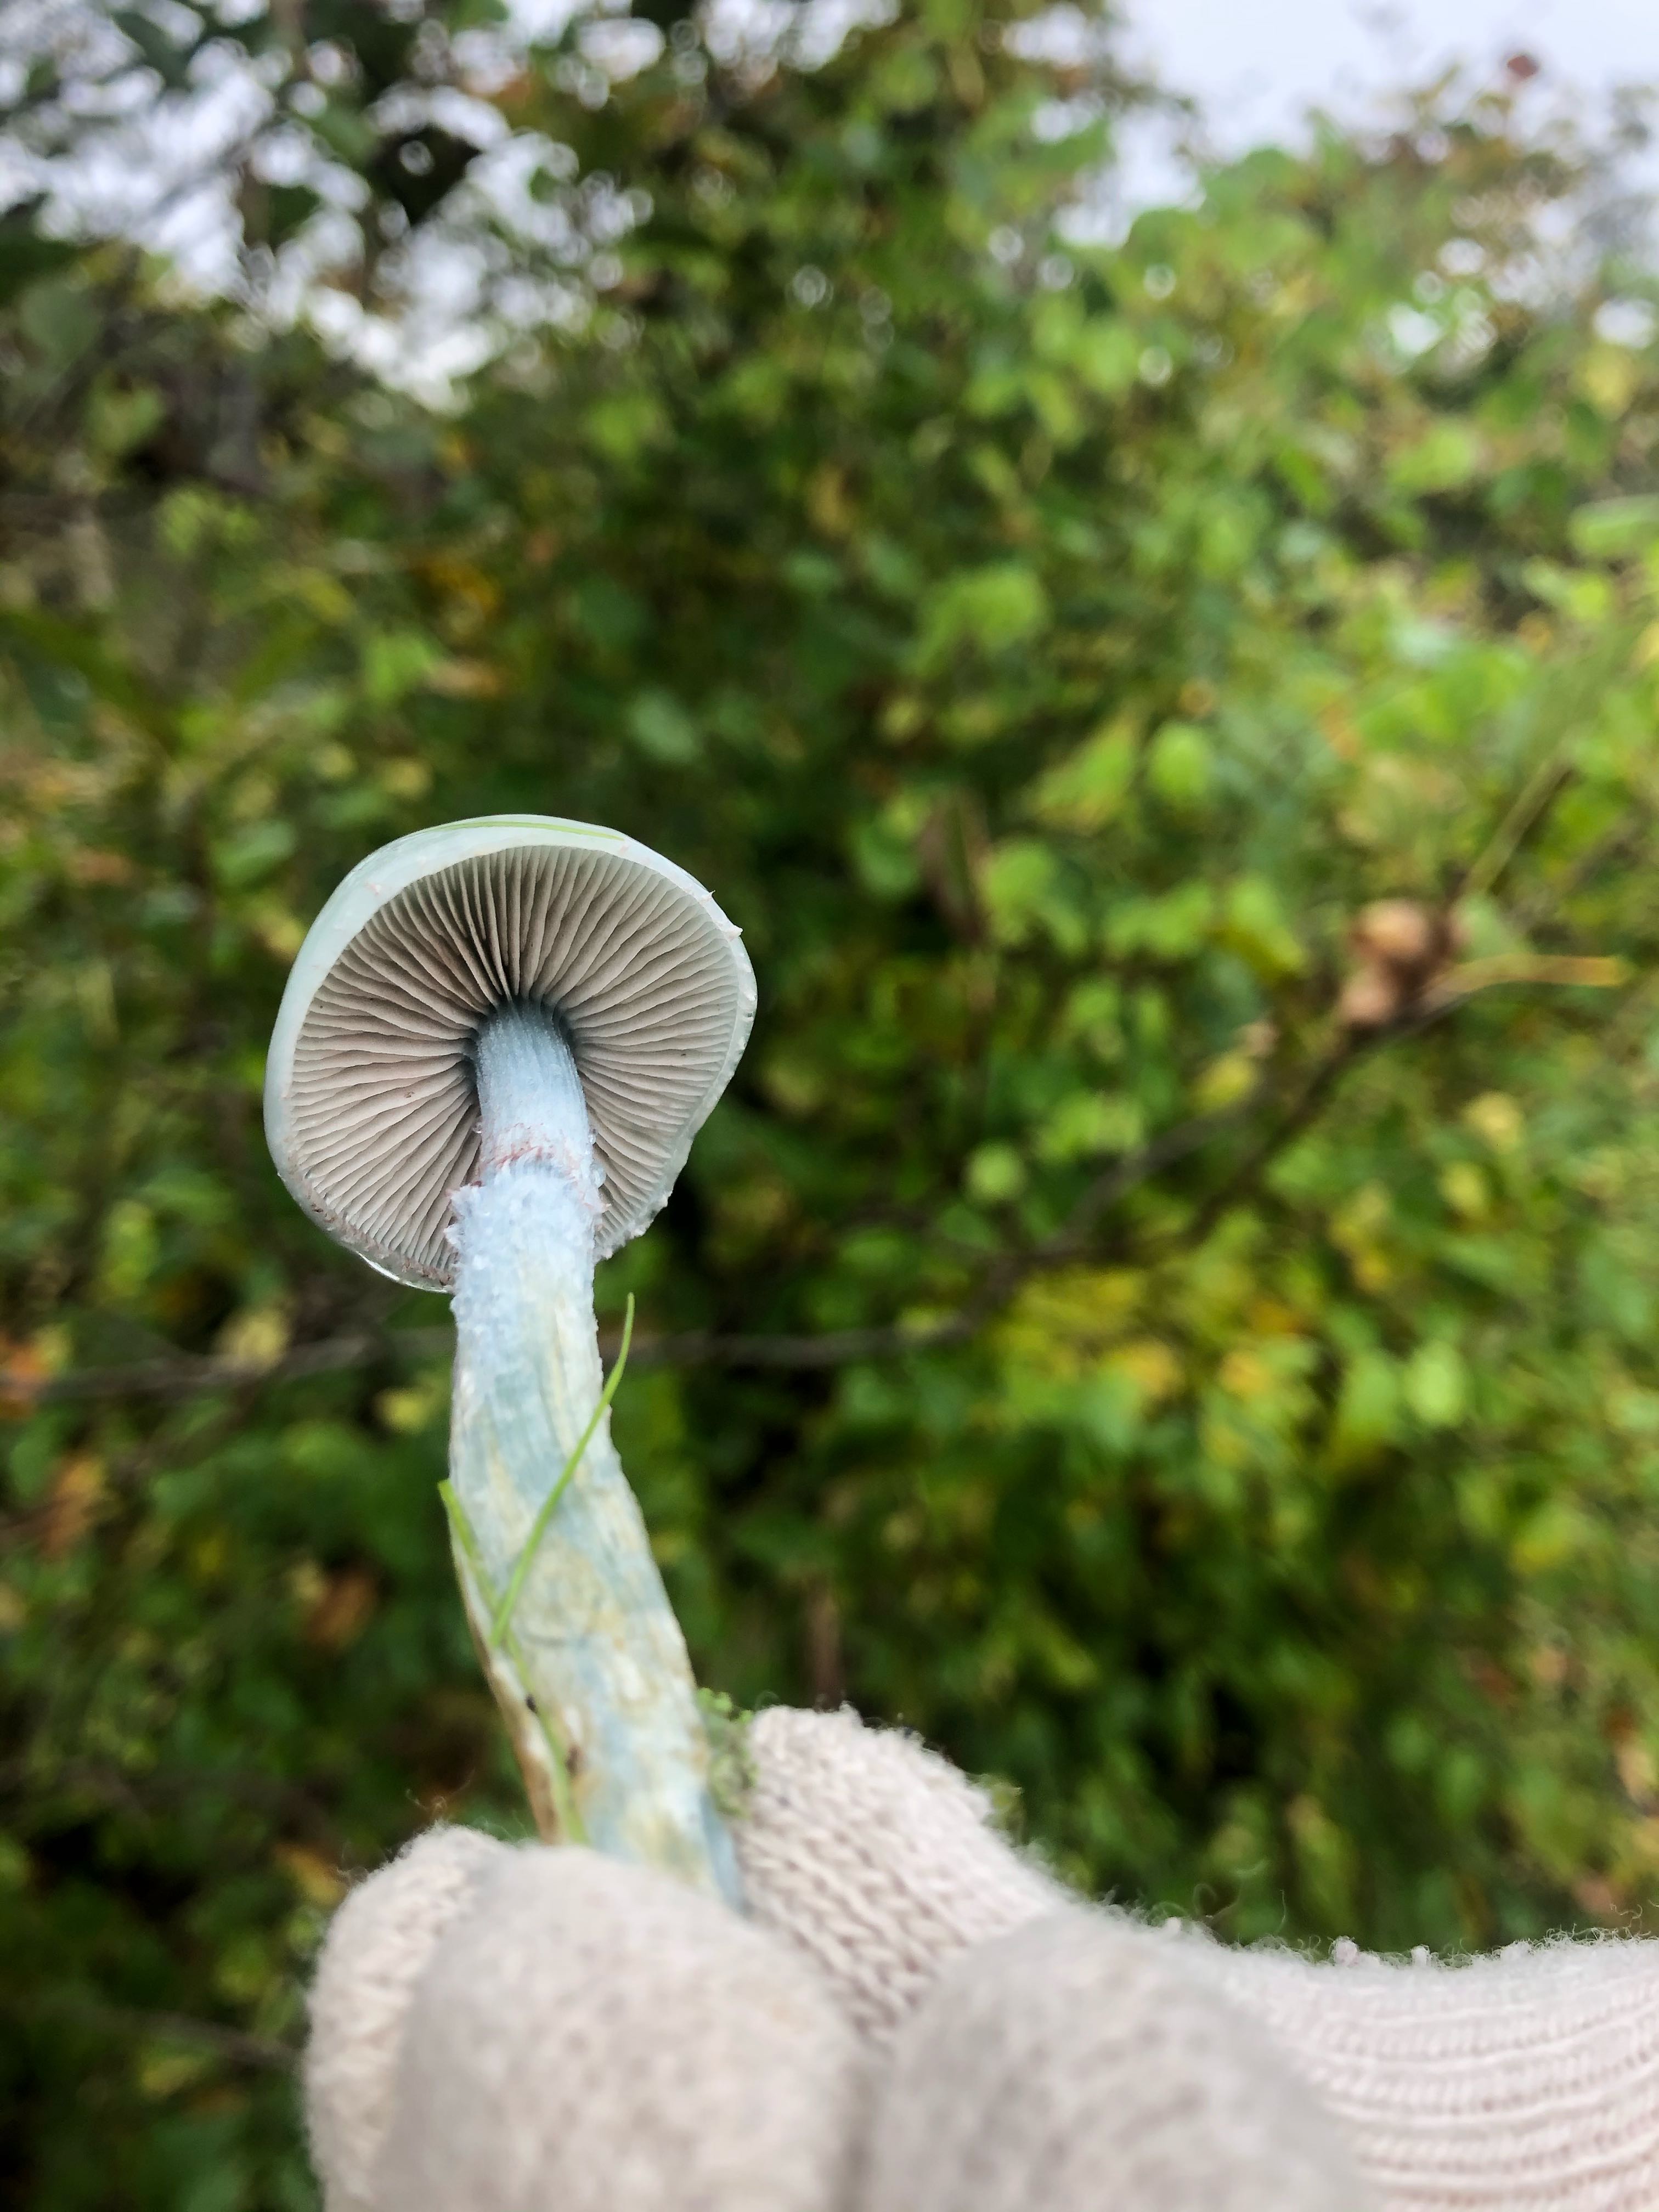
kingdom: Fungi
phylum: Basidiomycota
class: Agaricomycetes
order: Agaricales
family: Strophariaceae
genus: Stropharia
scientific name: Stropharia cyanea
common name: blågrøn bredblad
